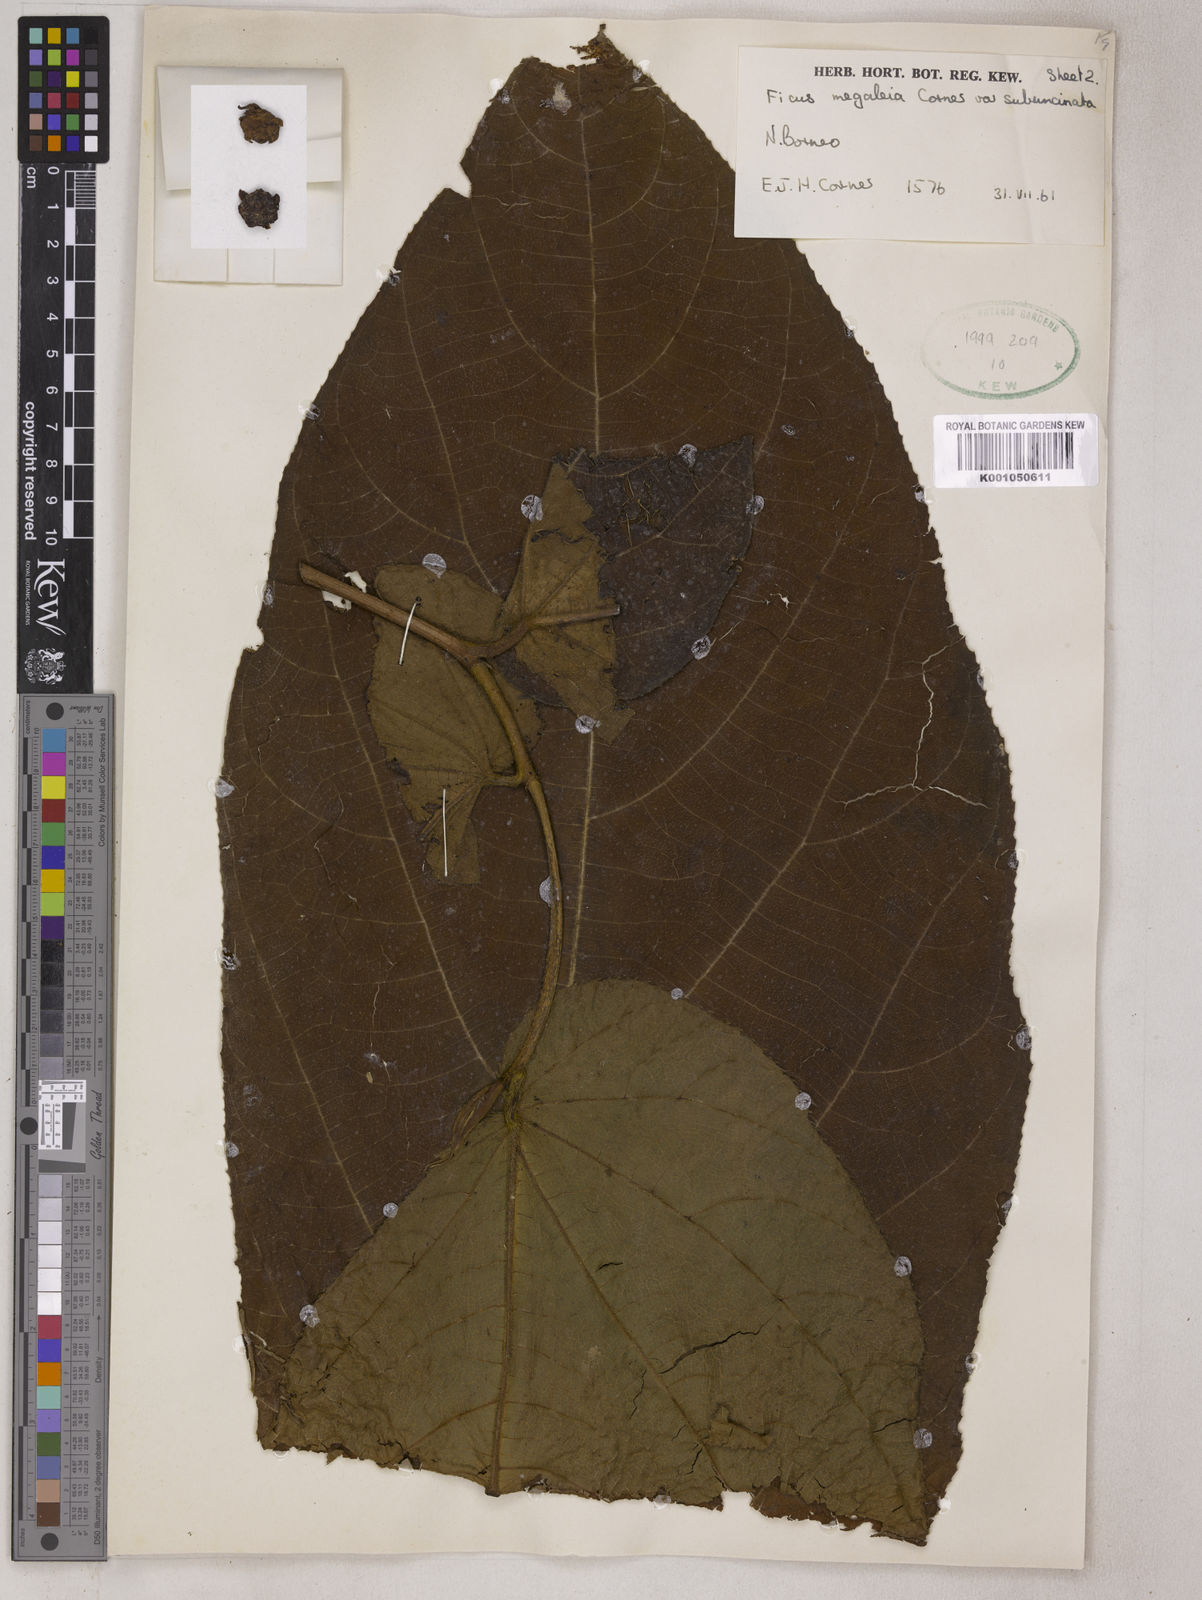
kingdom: Plantae
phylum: Tracheophyta
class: Magnoliopsida
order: Rosales
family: Moraceae
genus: Ficus
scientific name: Ficus megaleia
